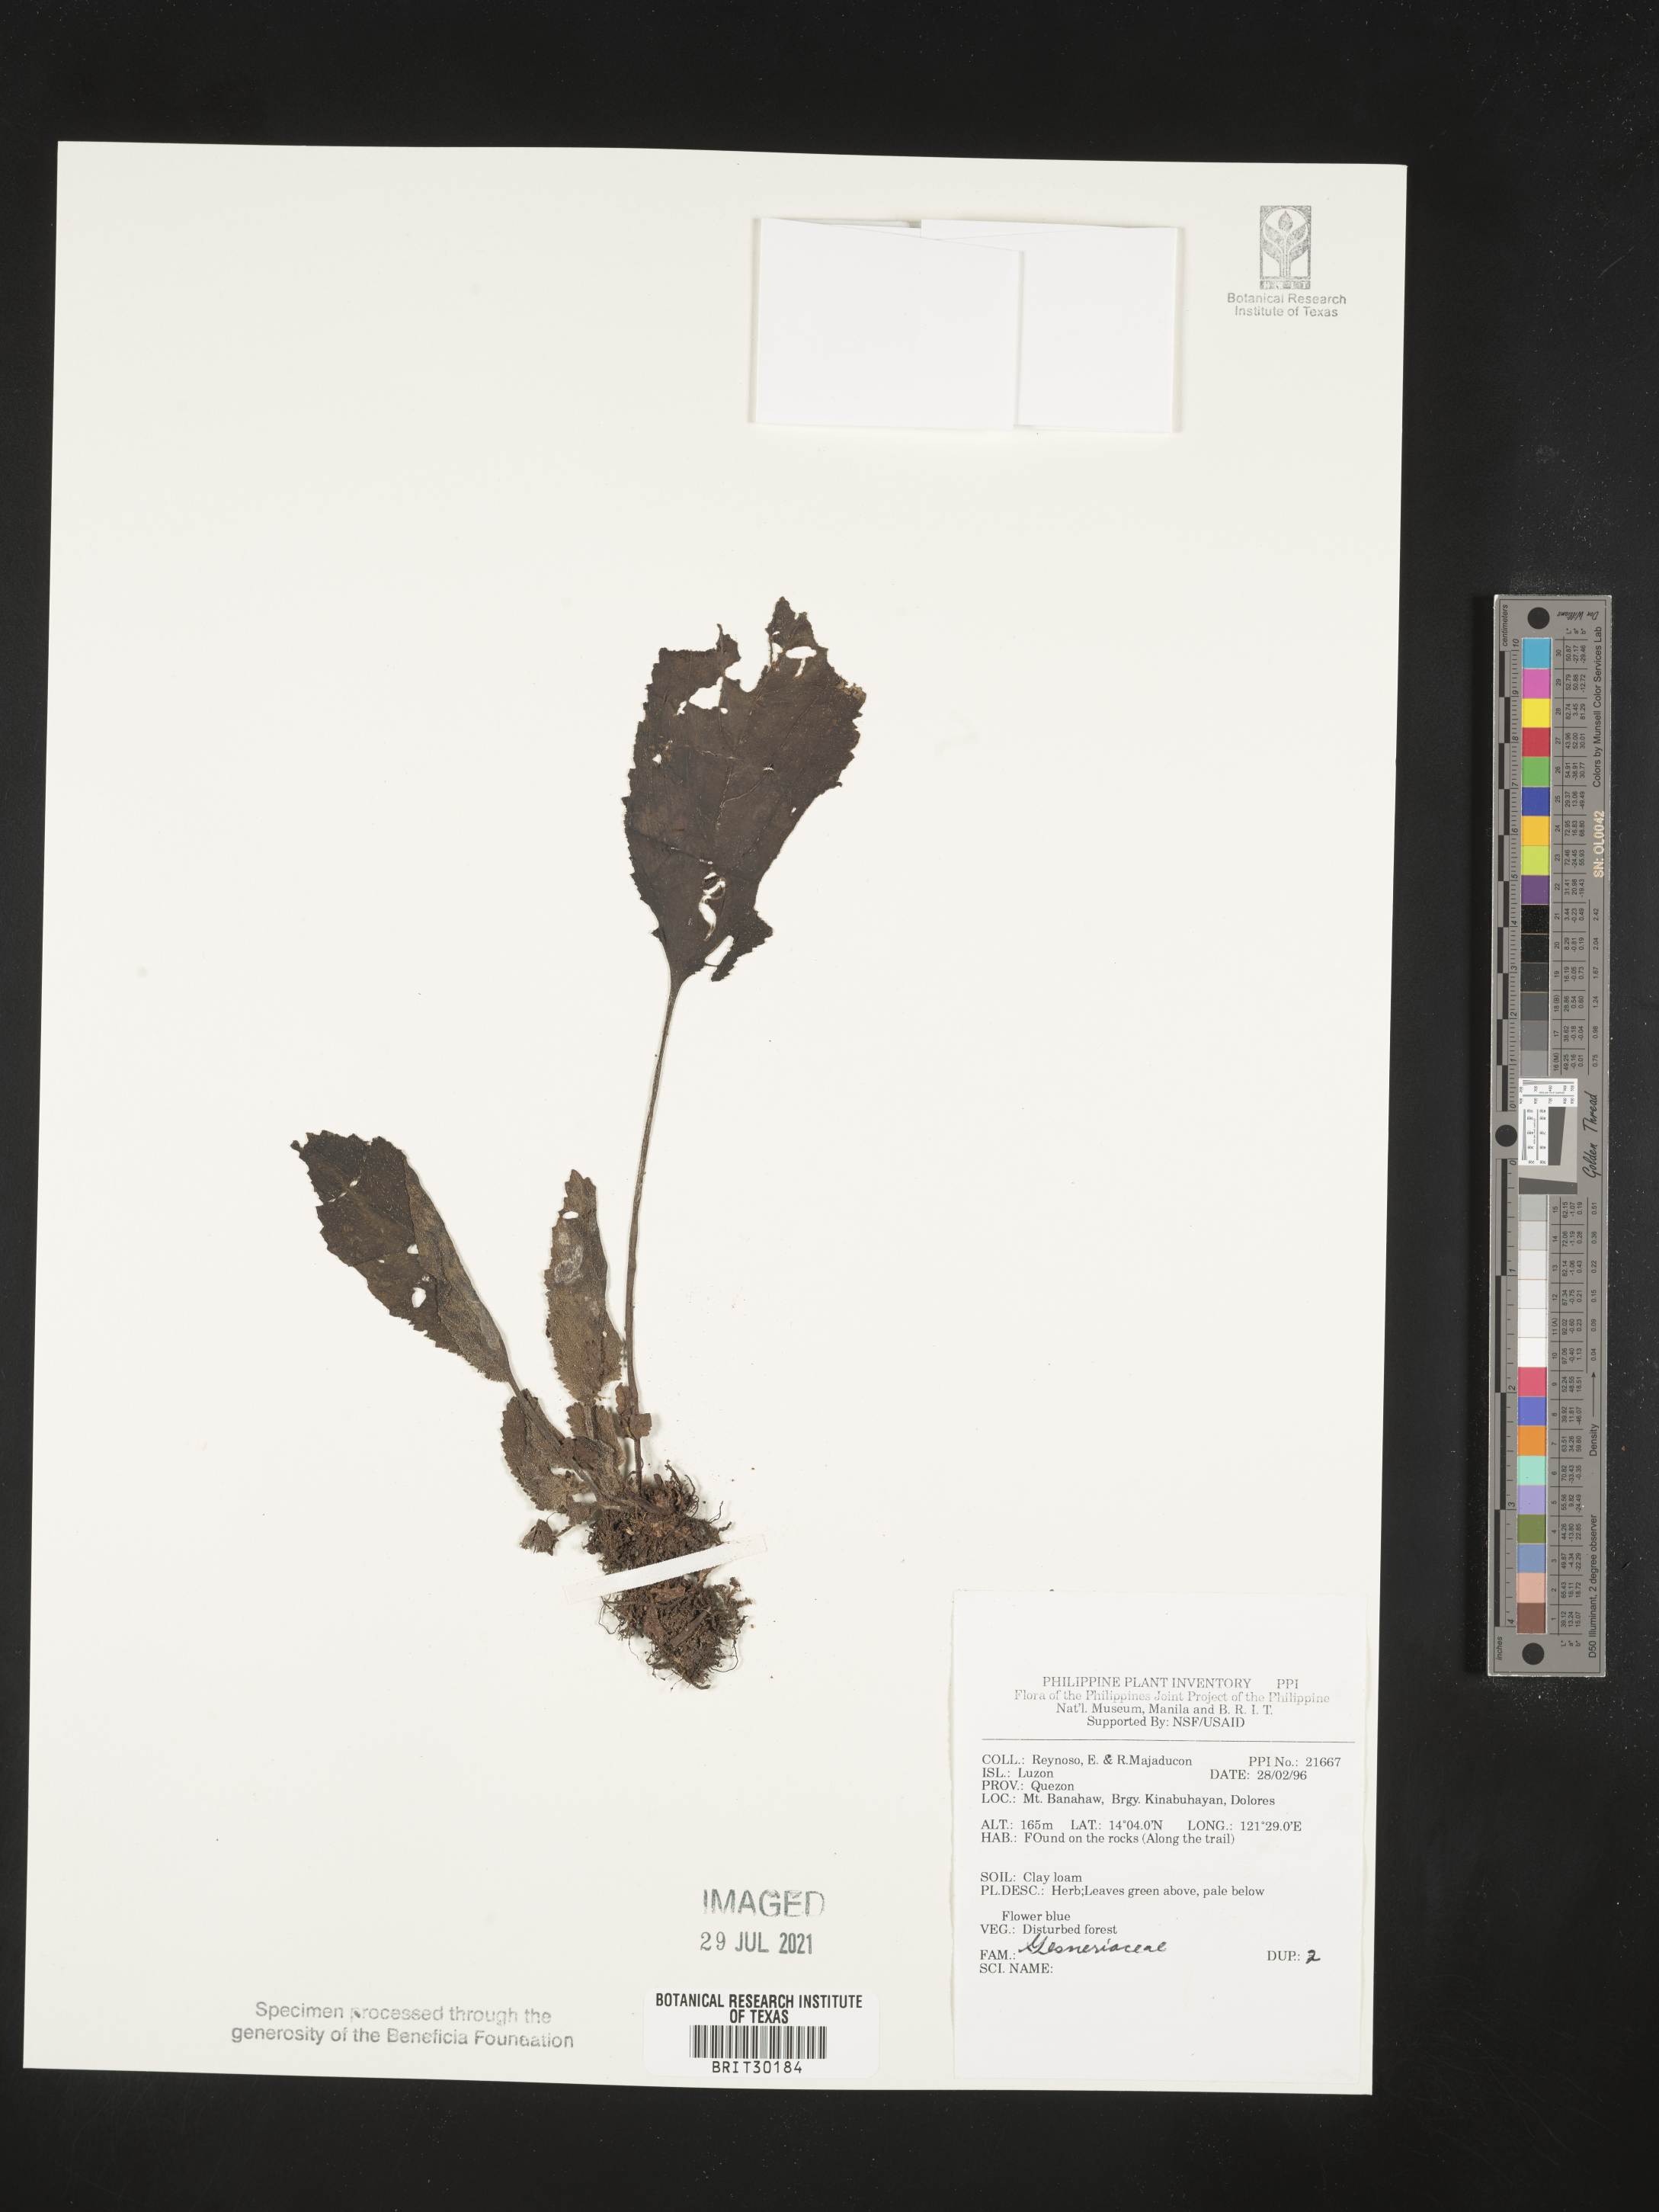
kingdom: Plantae
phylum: Tracheophyta
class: Magnoliopsida
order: Lamiales
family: Gesneriaceae
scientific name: Gesneriaceae
